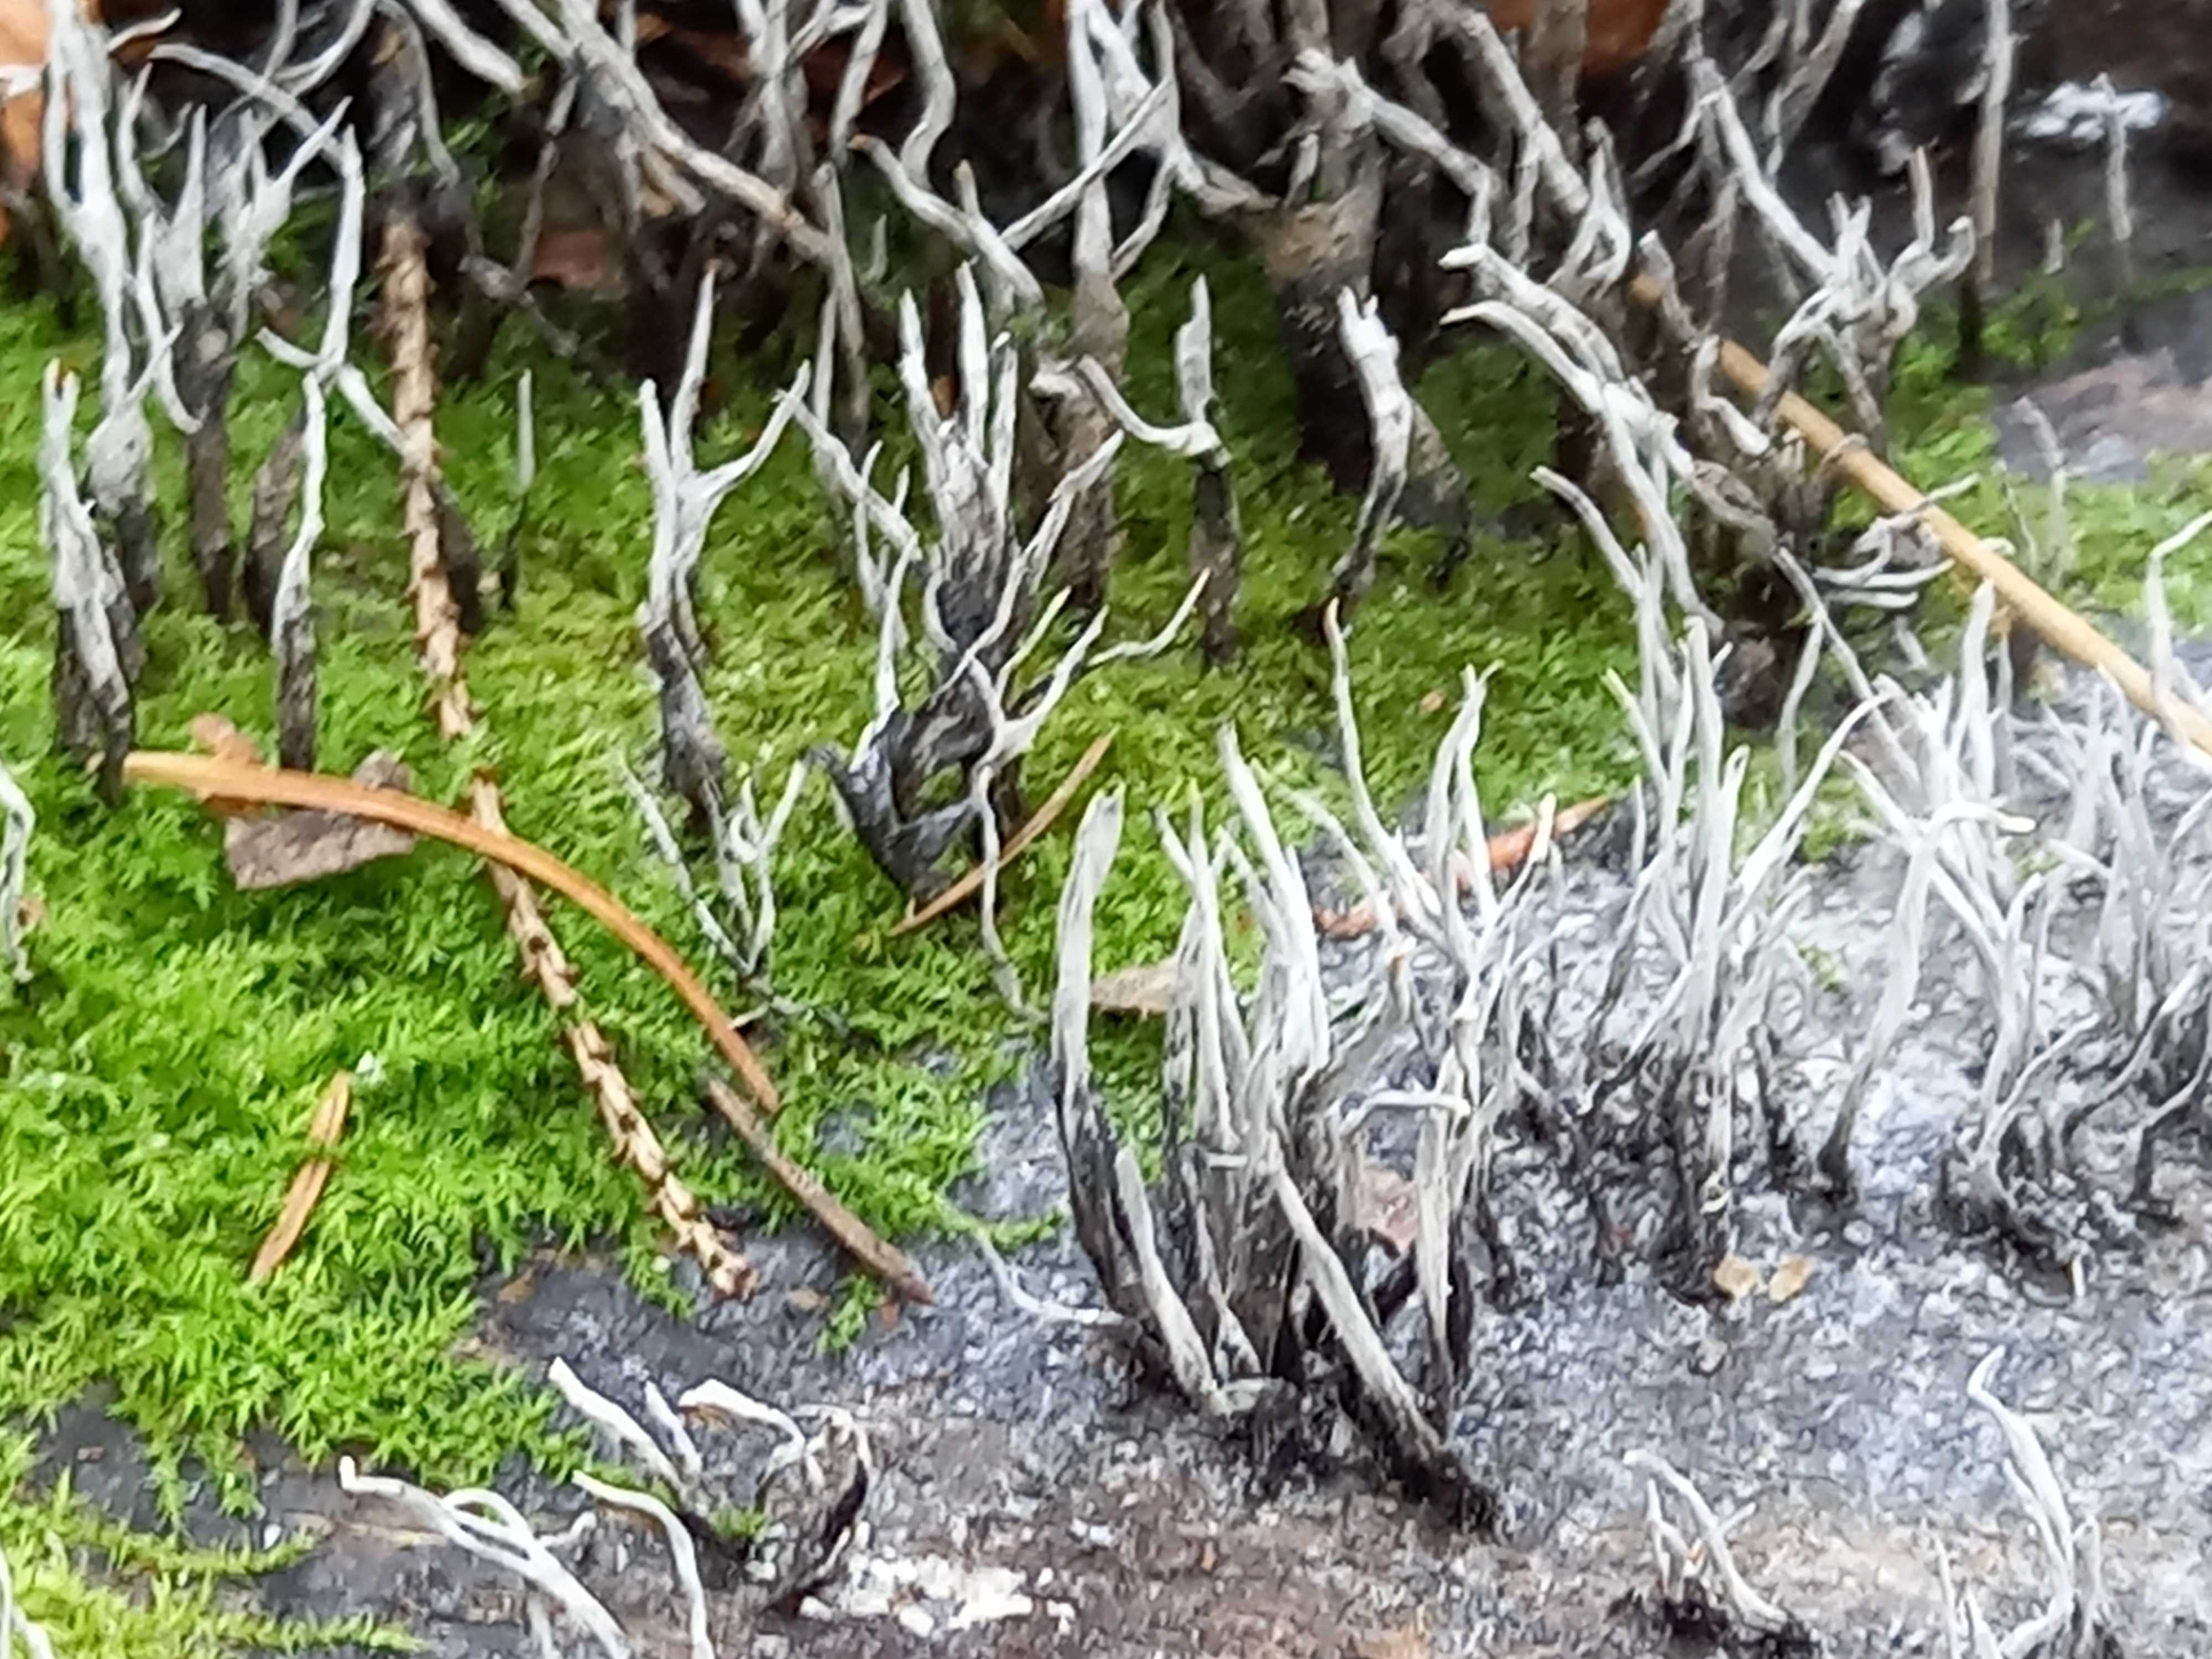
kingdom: Fungi
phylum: Ascomycota
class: Sordariomycetes
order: Xylariales
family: Xylariaceae
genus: Xylaria
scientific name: Xylaria hypoxylon
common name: grenet stødsvamp
